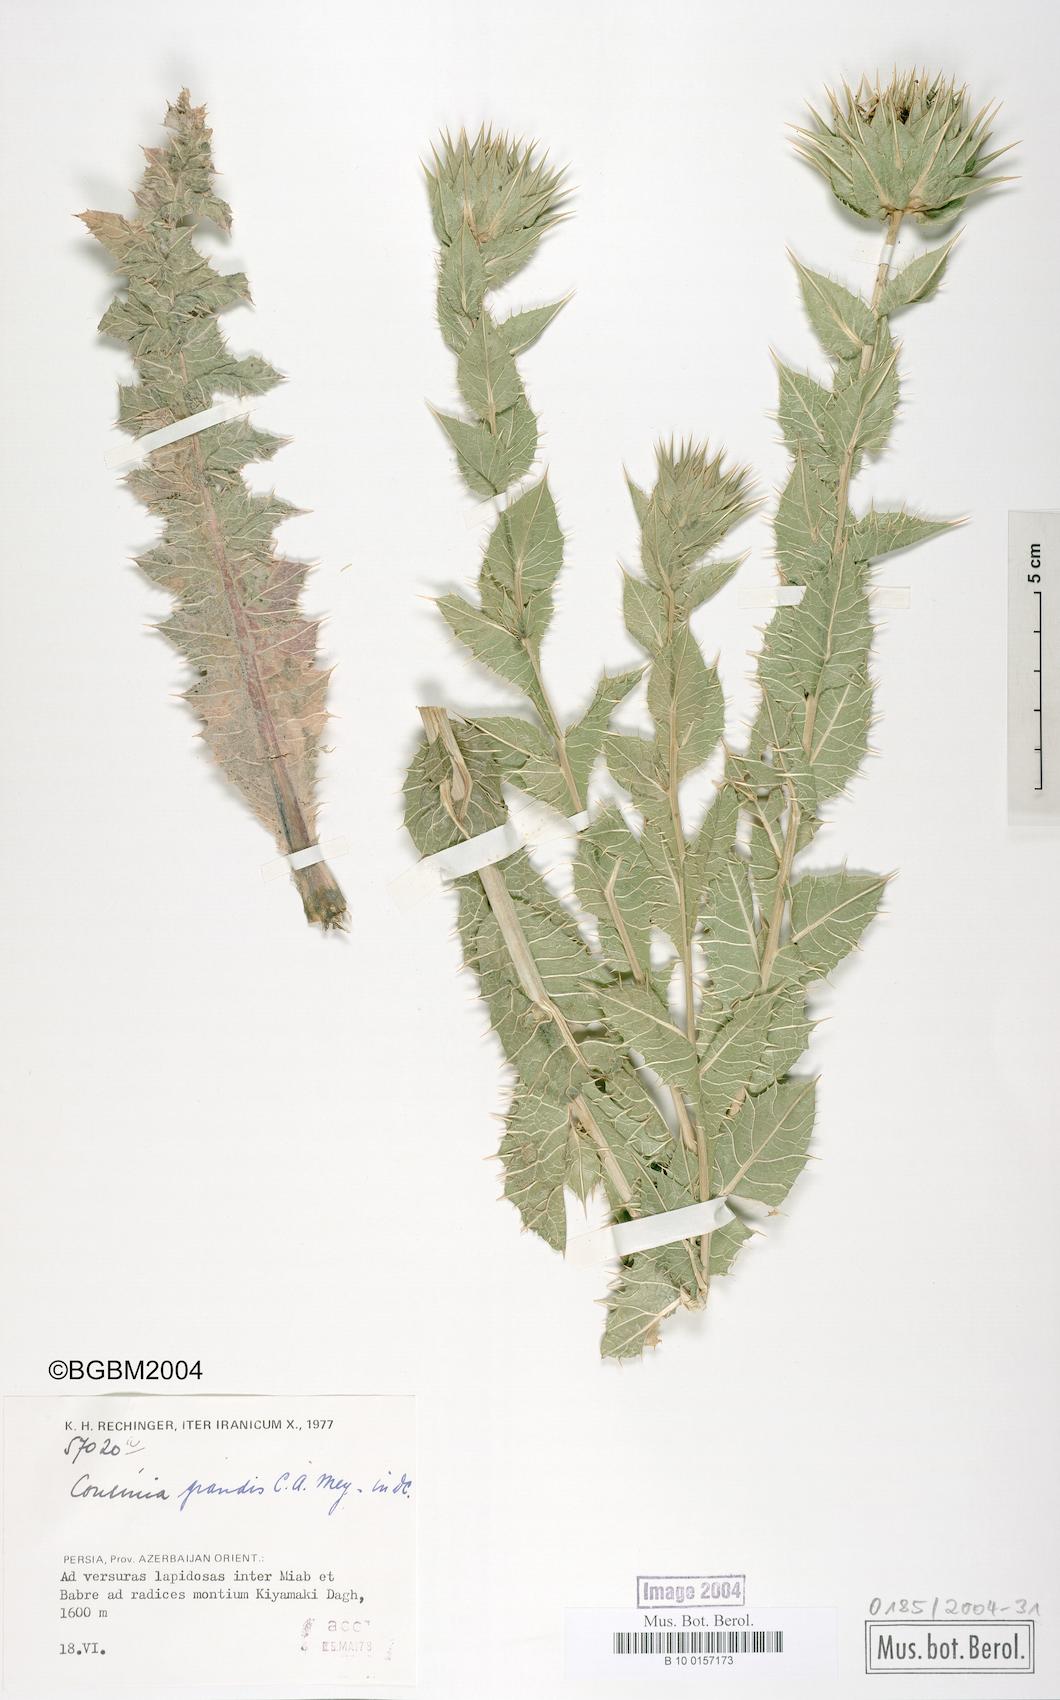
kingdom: Plantae
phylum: Tracheophyta
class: Magnoliopsida
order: Asterales
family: Asteraceae
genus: Cousinia
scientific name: Cousinia grandis
